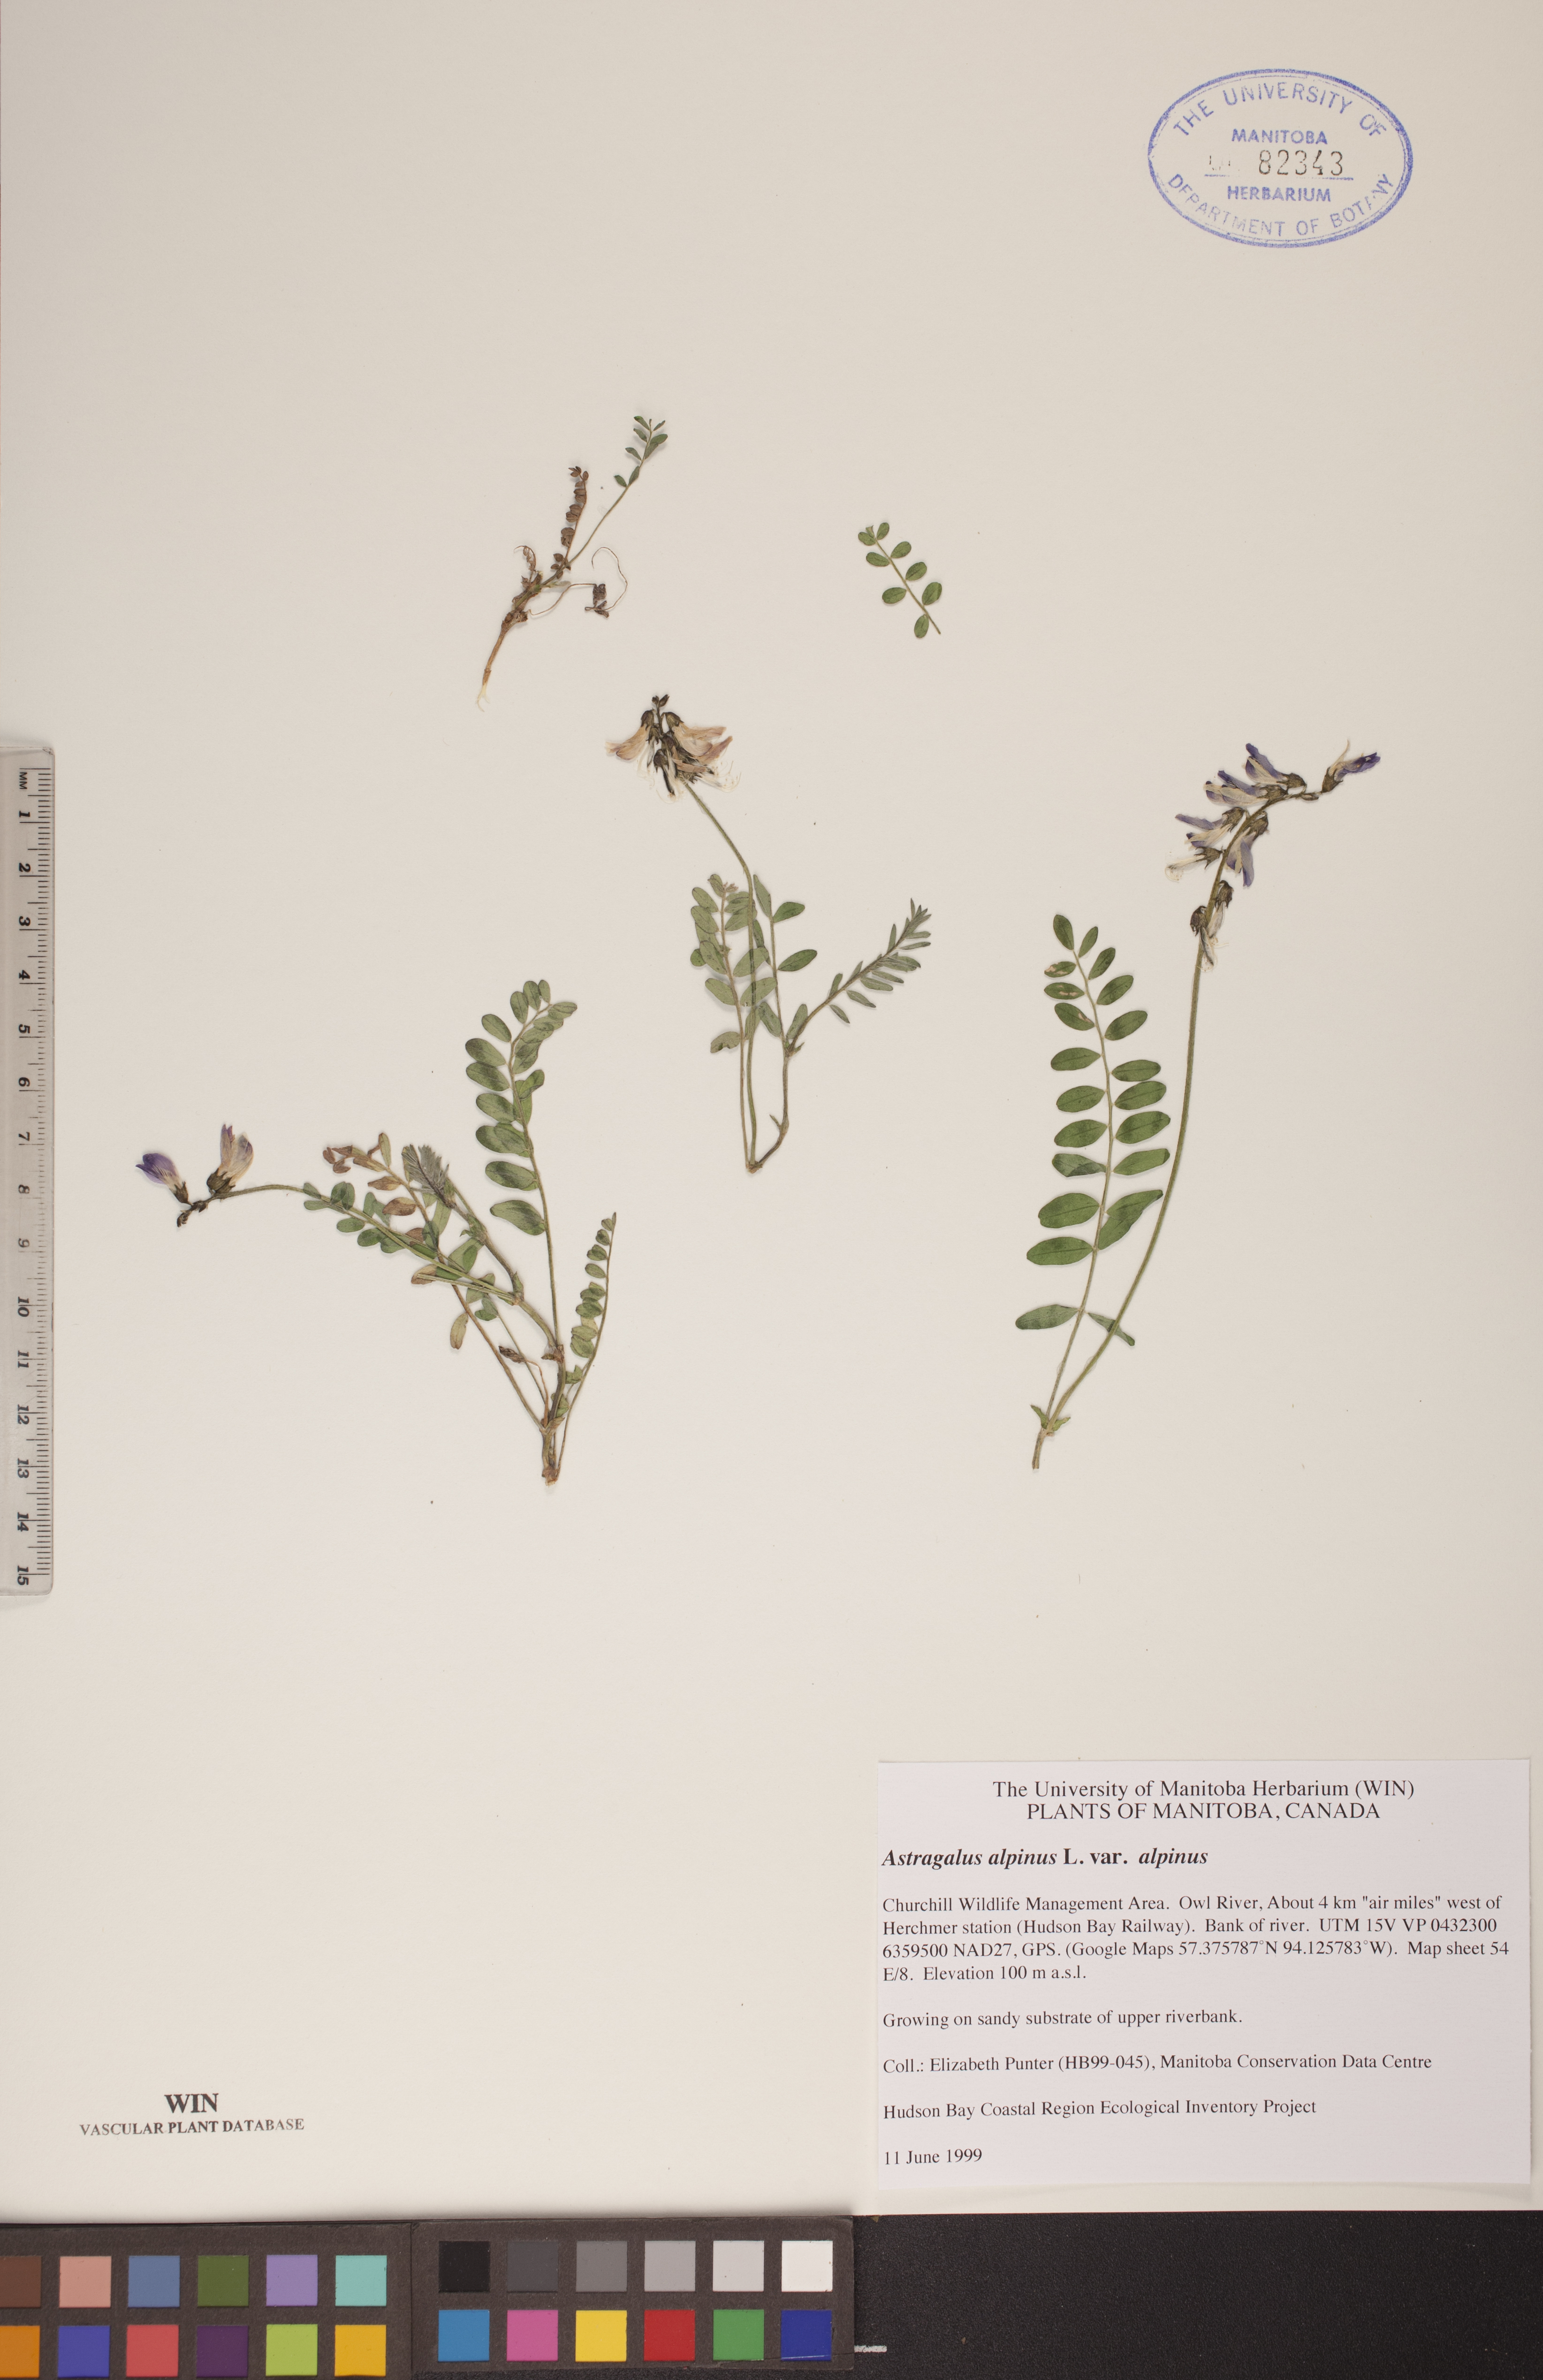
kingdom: Plantae
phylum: Tracheophyta
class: Magnoliopsida
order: Fabales
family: Fabaceae
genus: Astragalus
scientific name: Astragalus alpinus
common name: Alpine milk-vetch
